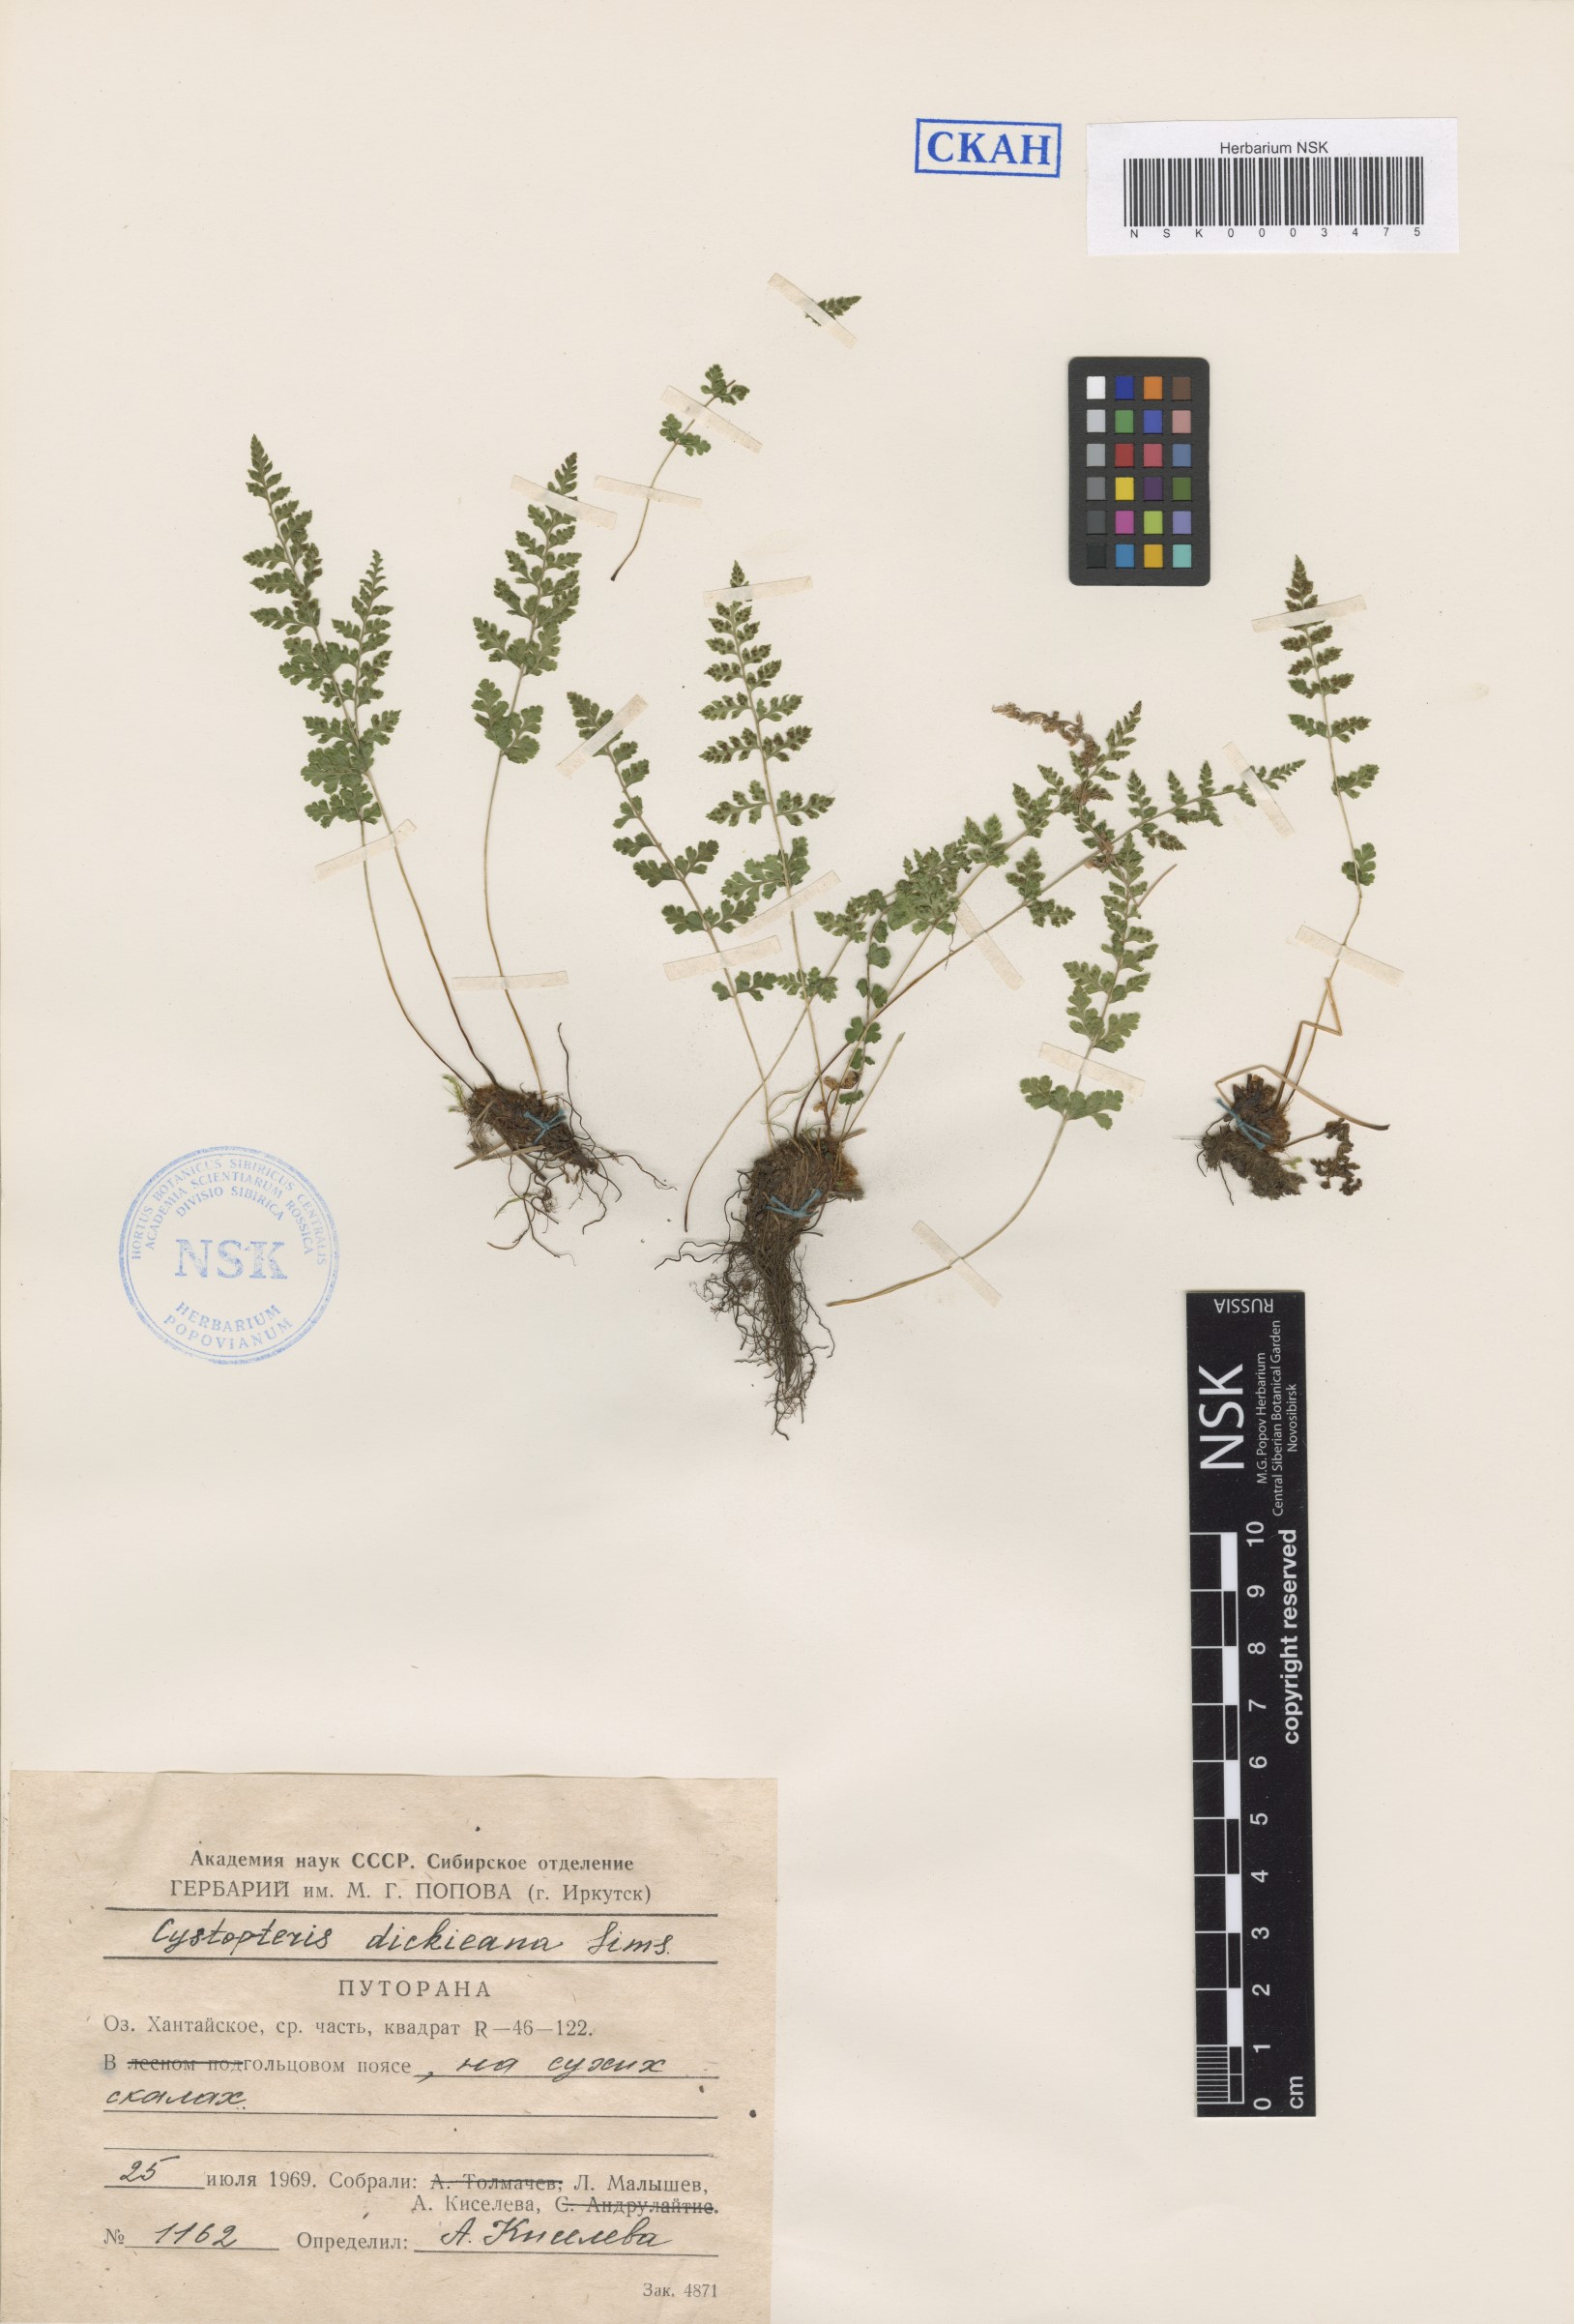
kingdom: Plantae
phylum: Tracheophyta
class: Polypodiopsida
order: Polypodiales
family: Cystopteridaceae
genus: Cystopteris
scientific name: Cystopteris dickieana
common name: Dickie's bladder-fern
